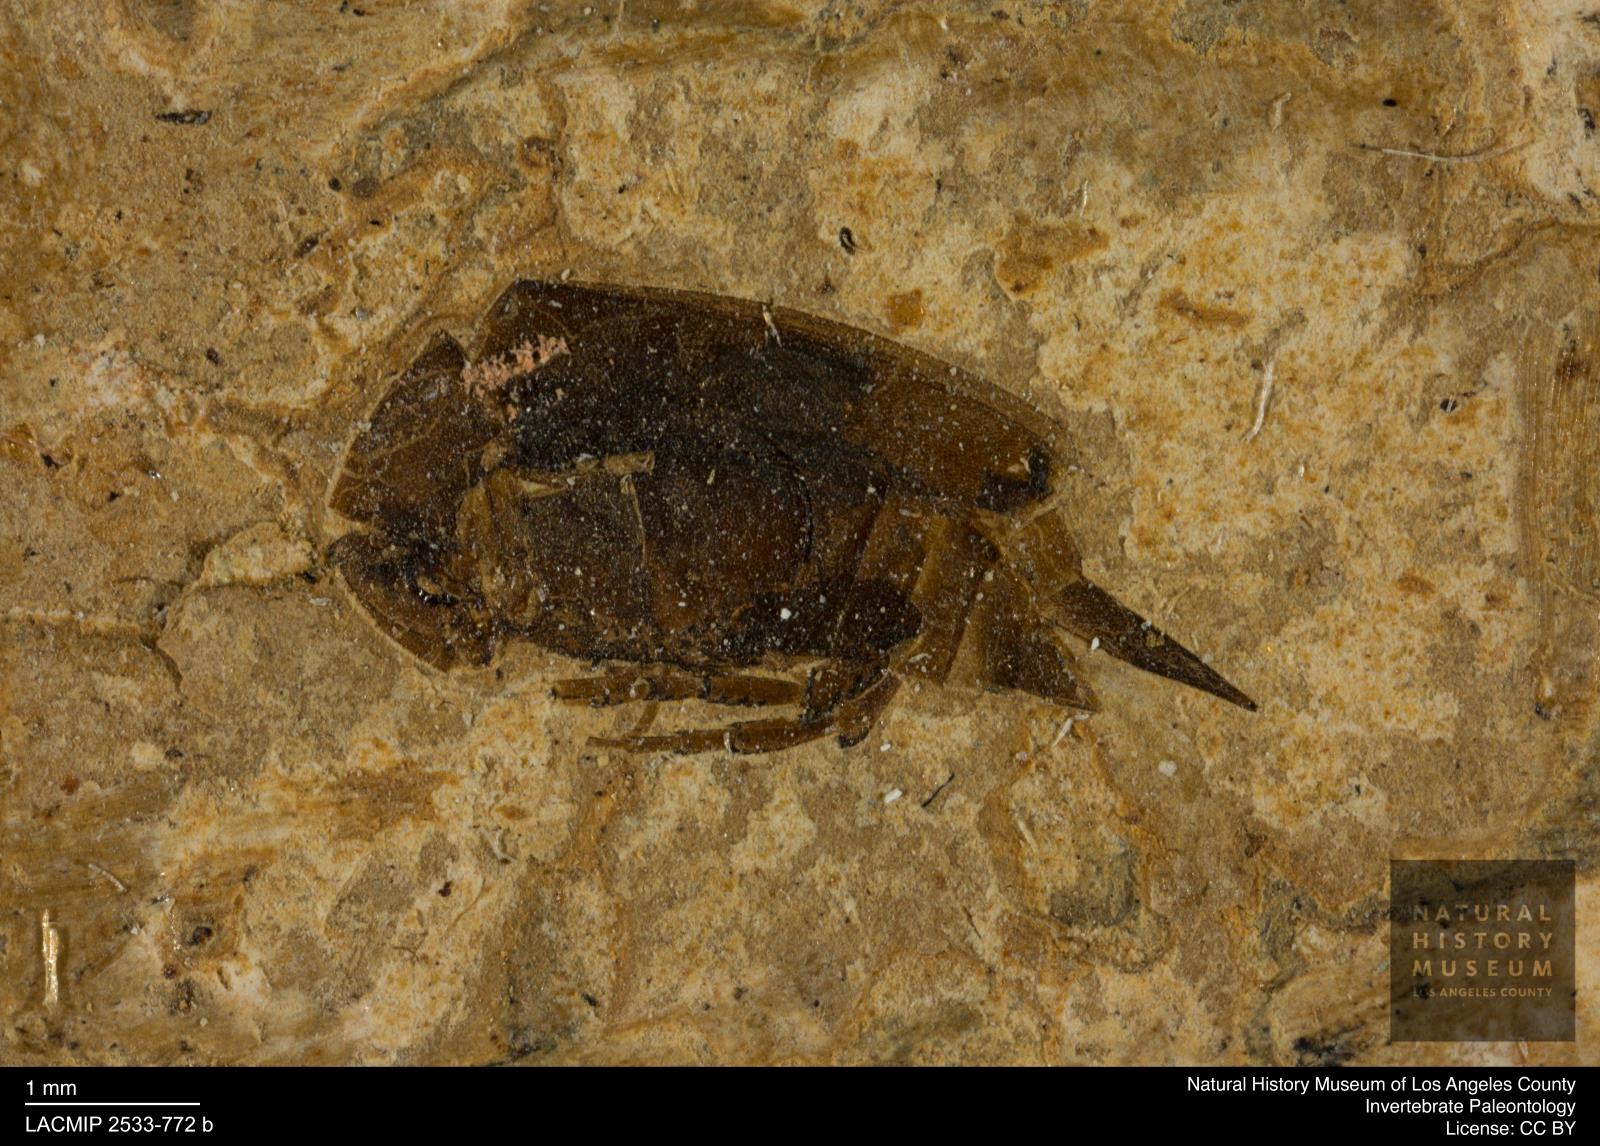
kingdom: Animalia
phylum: Arthropoda
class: Insecta
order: Coleoptera
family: Mordellidae
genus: Mordella
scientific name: Mordella indata
